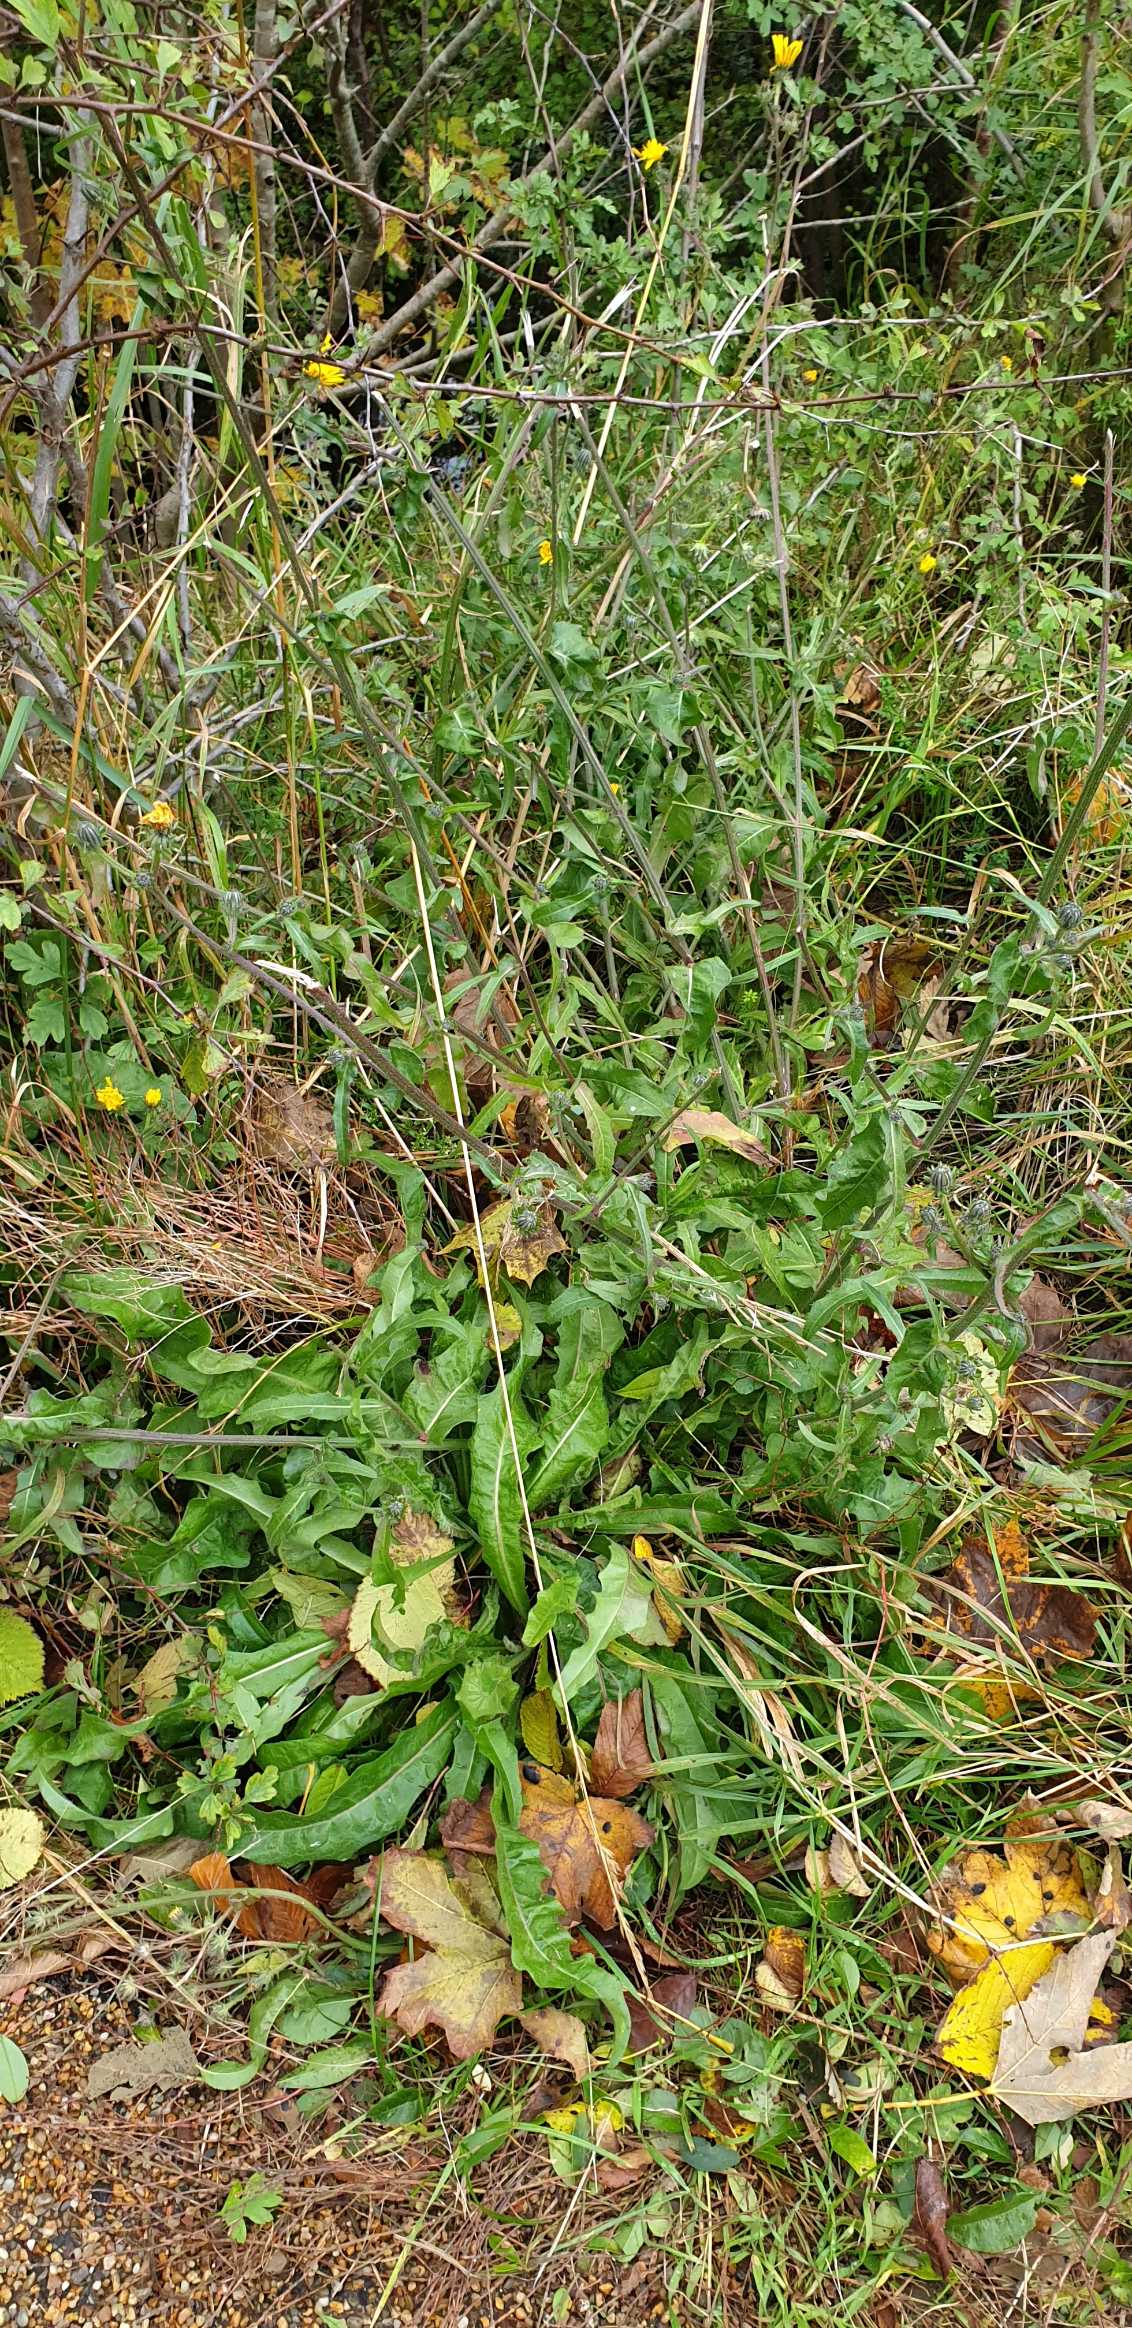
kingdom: Plantae
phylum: Tracheophyta
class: Magnoliopsida
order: Asterales
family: Asteraceae
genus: Picris
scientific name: Picris hieracioides
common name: Ru bittermælk
